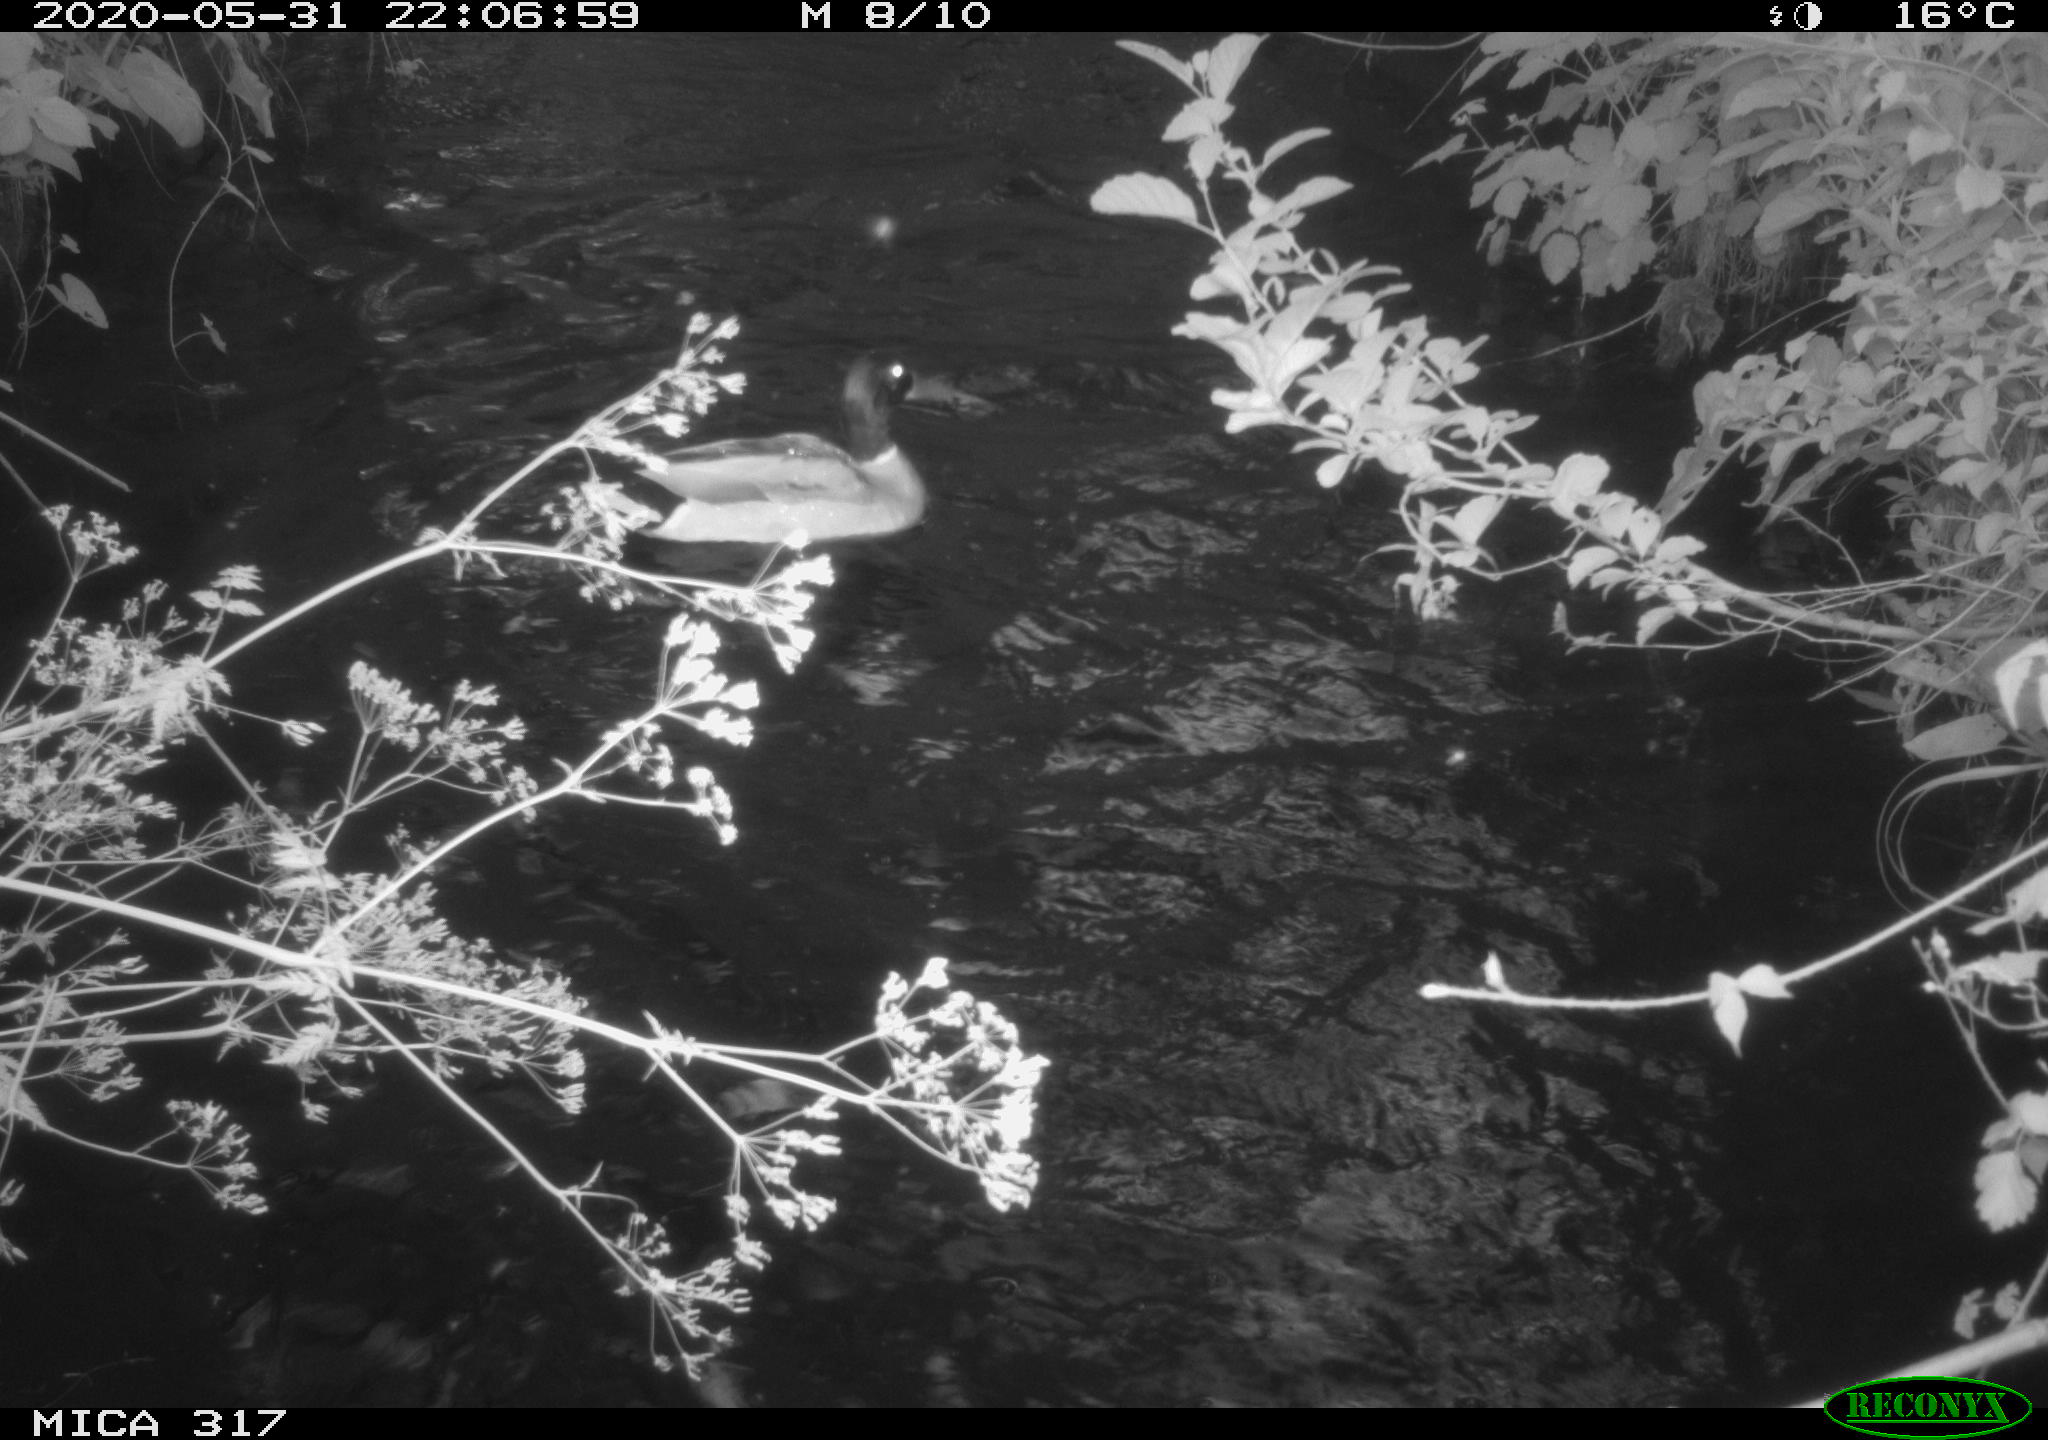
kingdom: Animalia
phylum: Chordata
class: Aves
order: Anseriformes
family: Anatidae
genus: Anas
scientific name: Anas platyrhynchos
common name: Mallard
